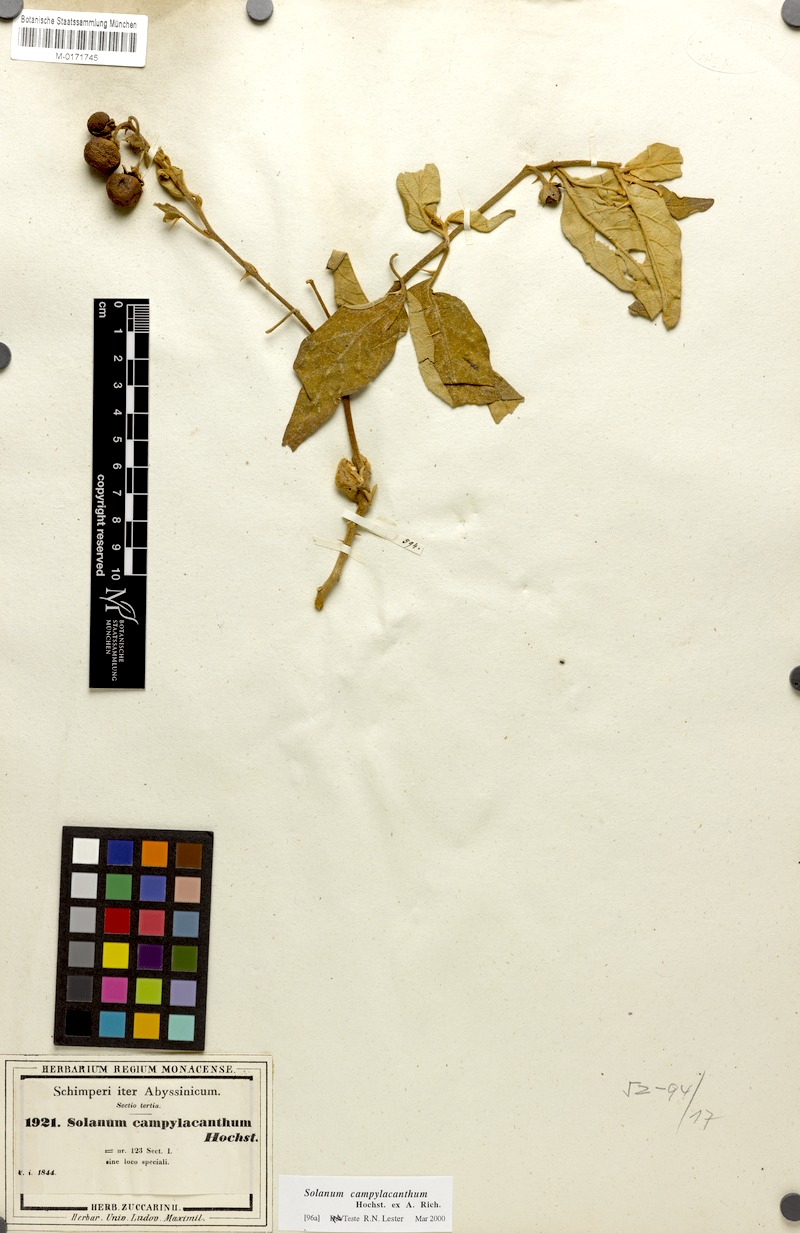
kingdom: Plantae
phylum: Tracheophyta
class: Magnoliopsida
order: Solanales
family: Solanaceae
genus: Solanum
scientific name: Solanum campylacanthum
